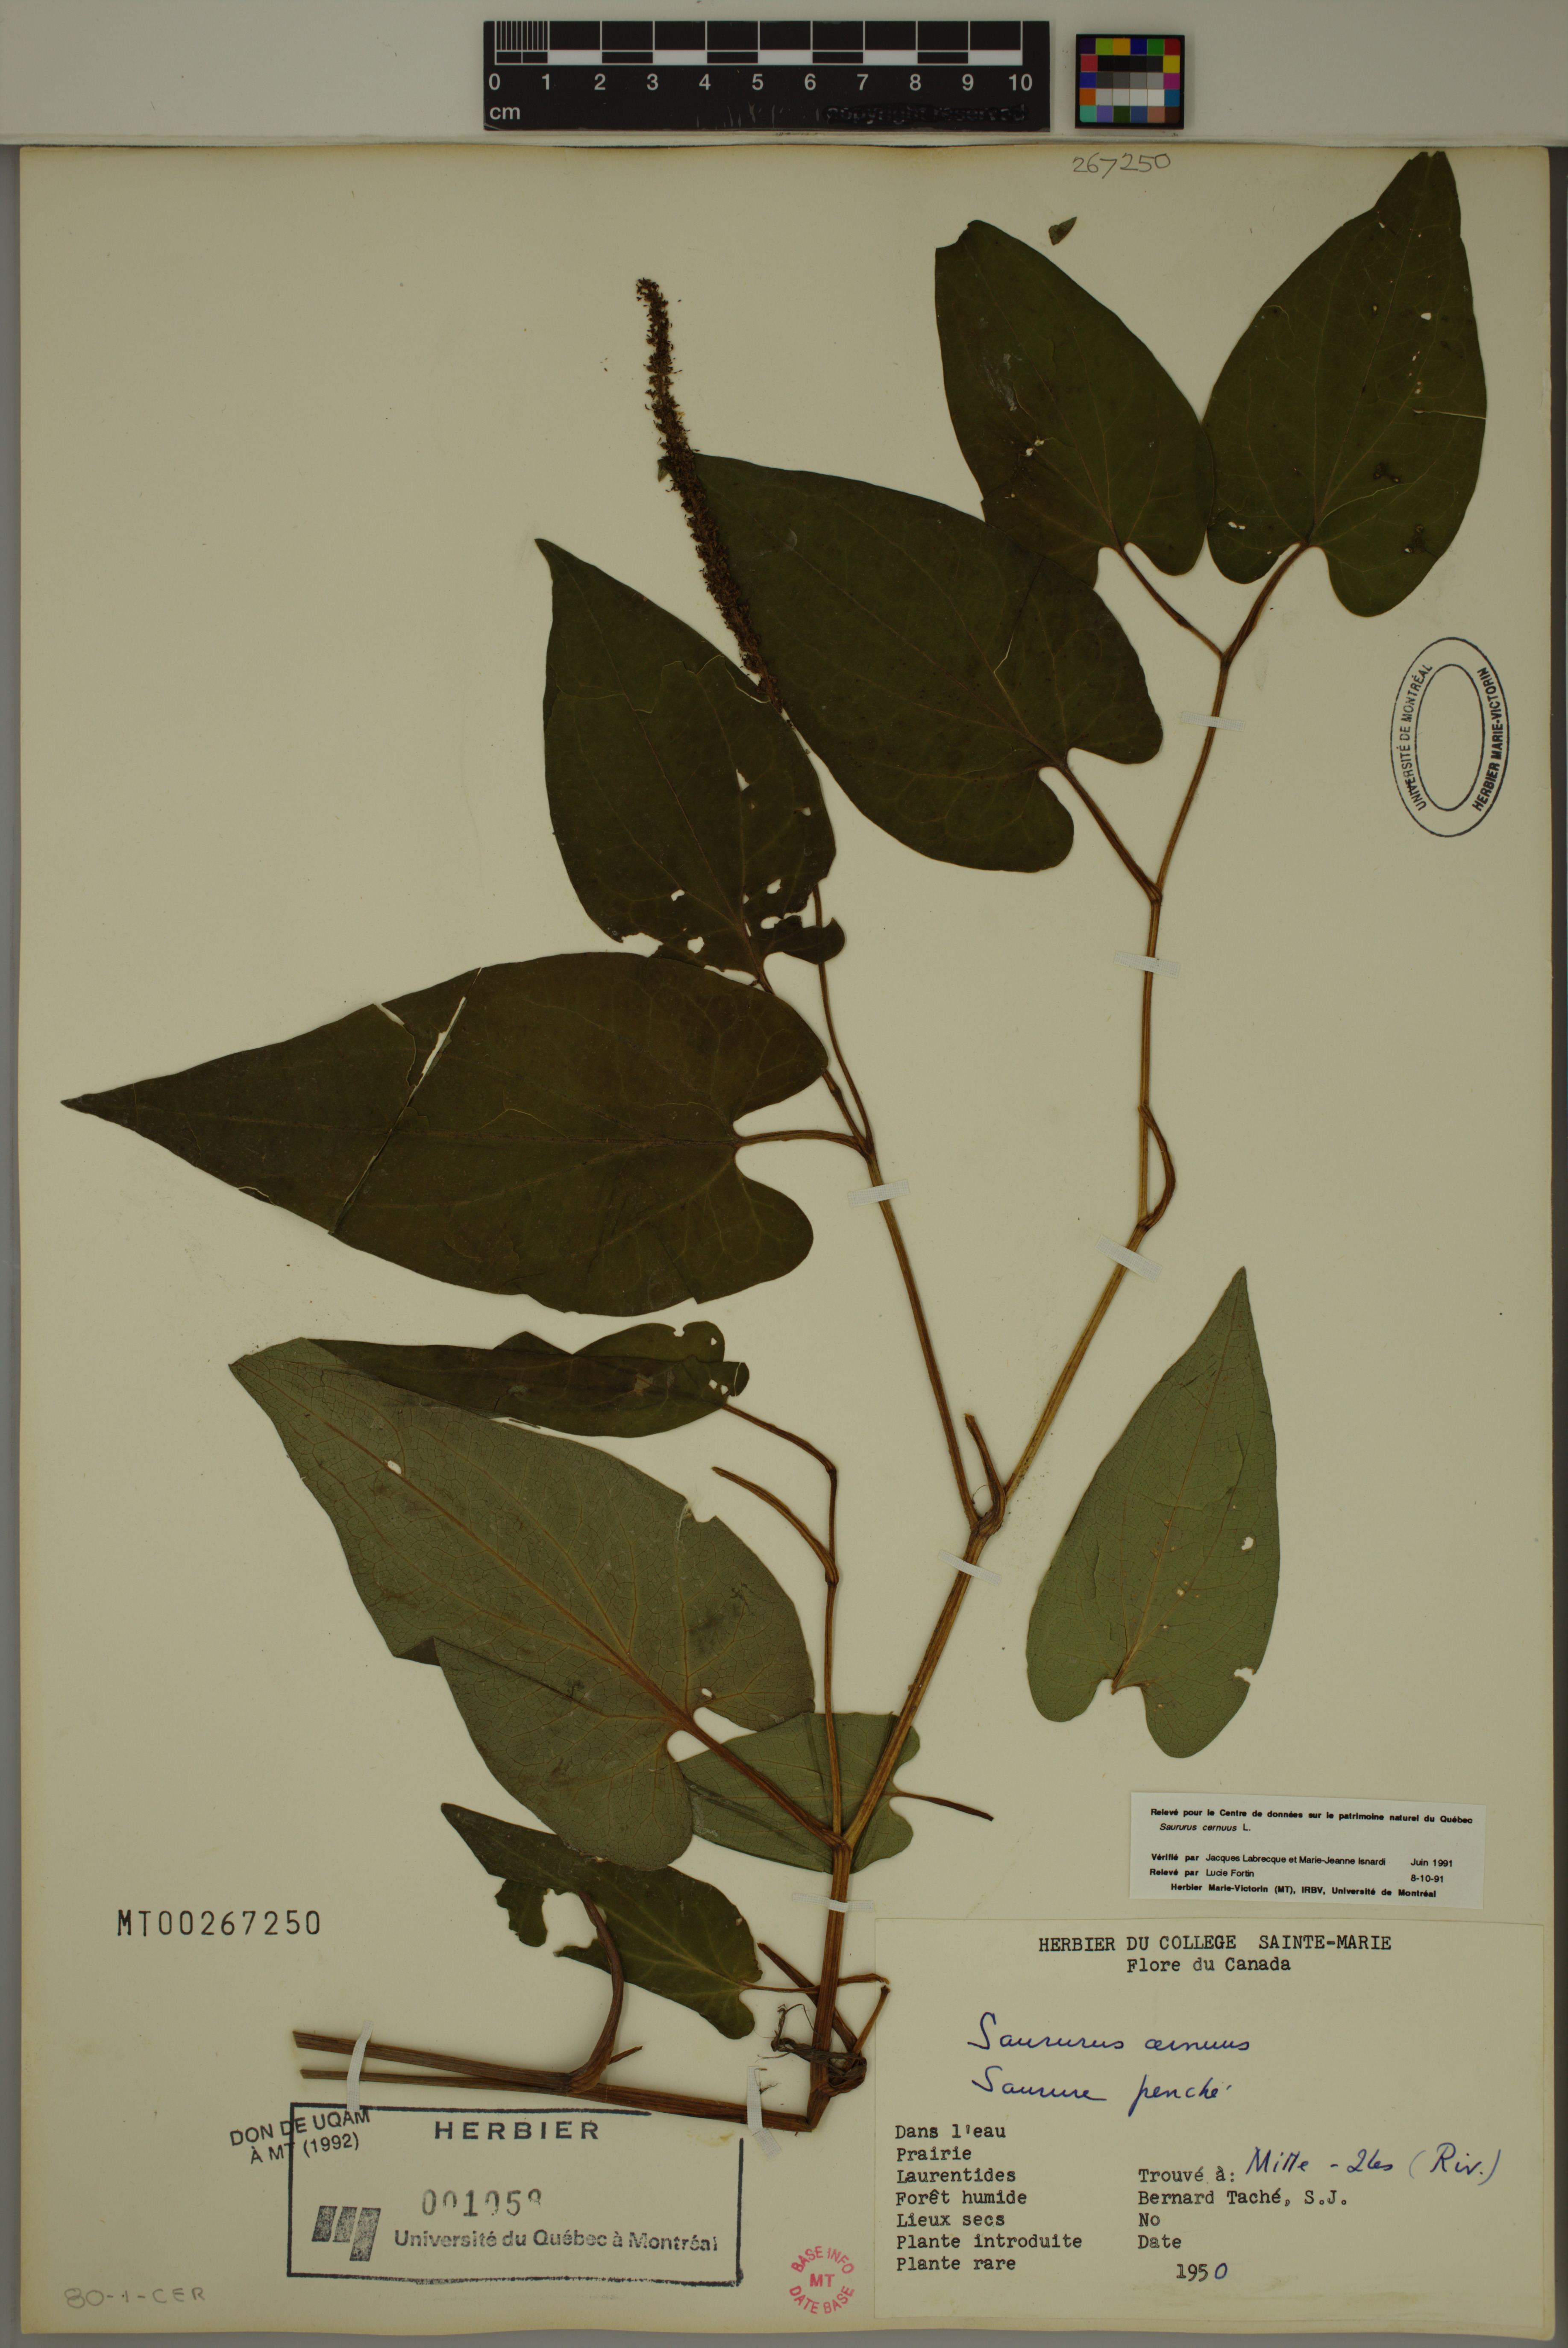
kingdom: Plantae
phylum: Tracheophyta
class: Magnoliopsida
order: Piperales
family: Saururaceae
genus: Saururus
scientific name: Saururus cernuus
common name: Lizard's-tail
